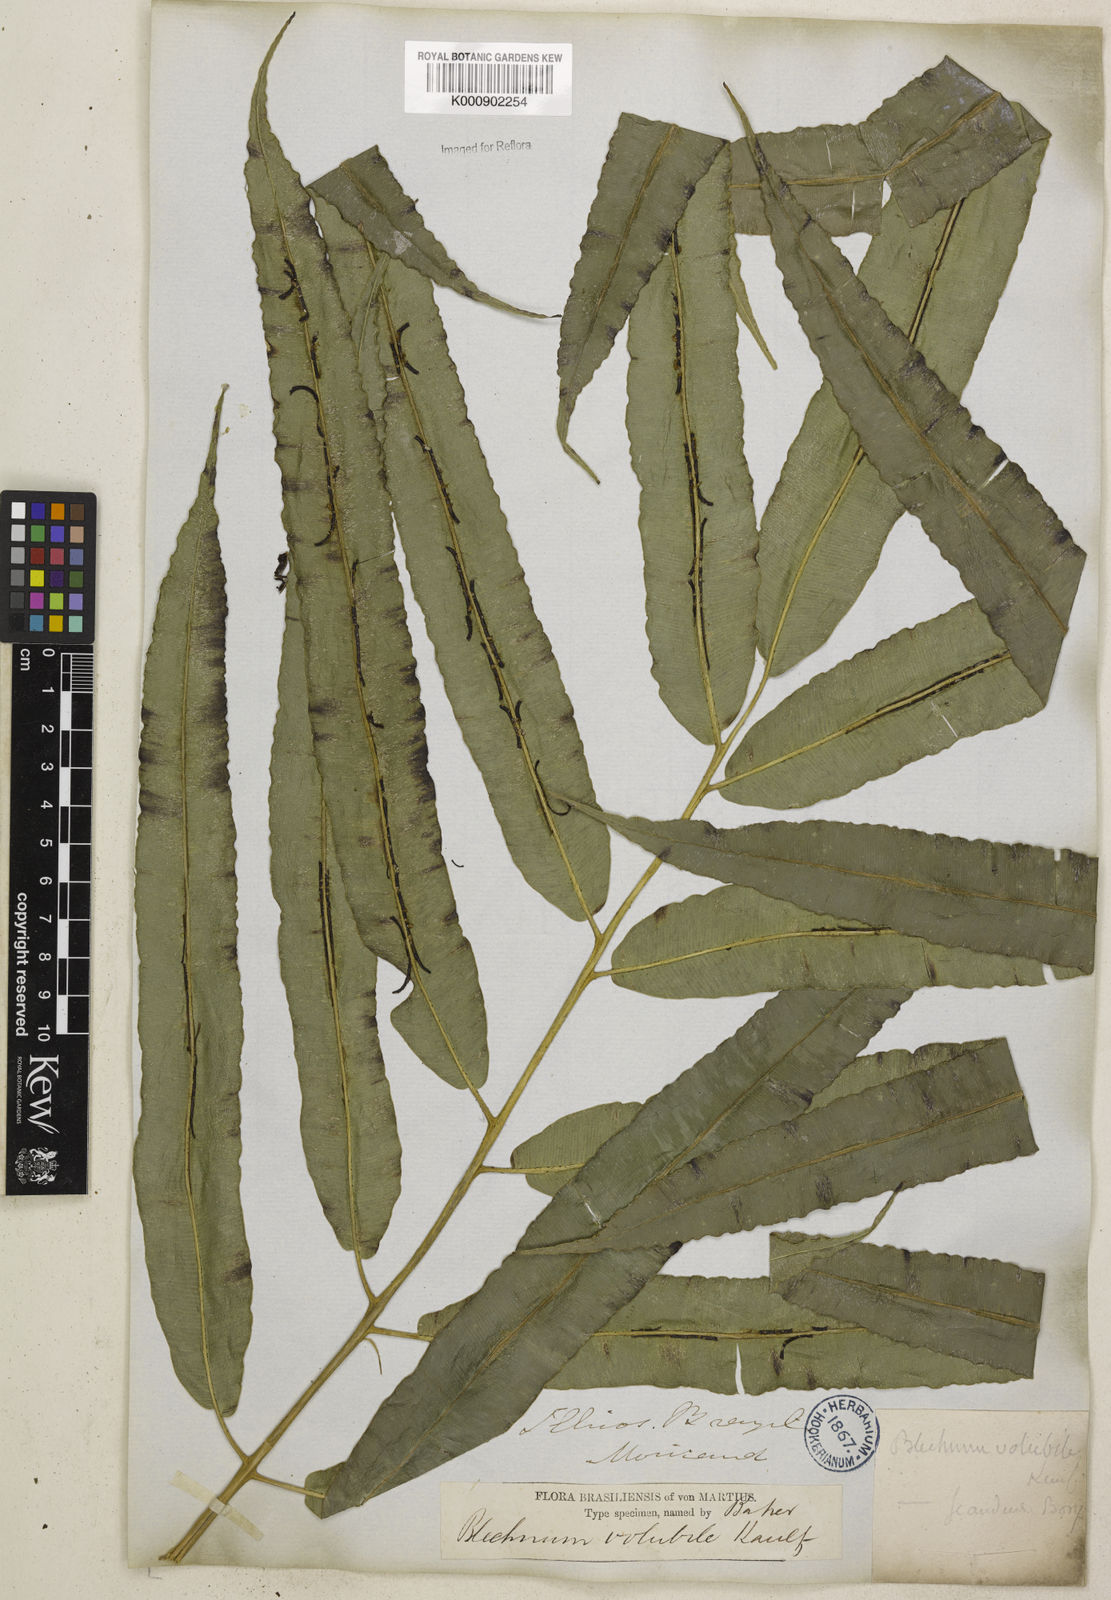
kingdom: Plantae
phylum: Tracheophyta
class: Polypodiopsida
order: Polypodiales
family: Blechnaceae
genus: Salpichlaena
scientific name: Salpichlaena volubilis
